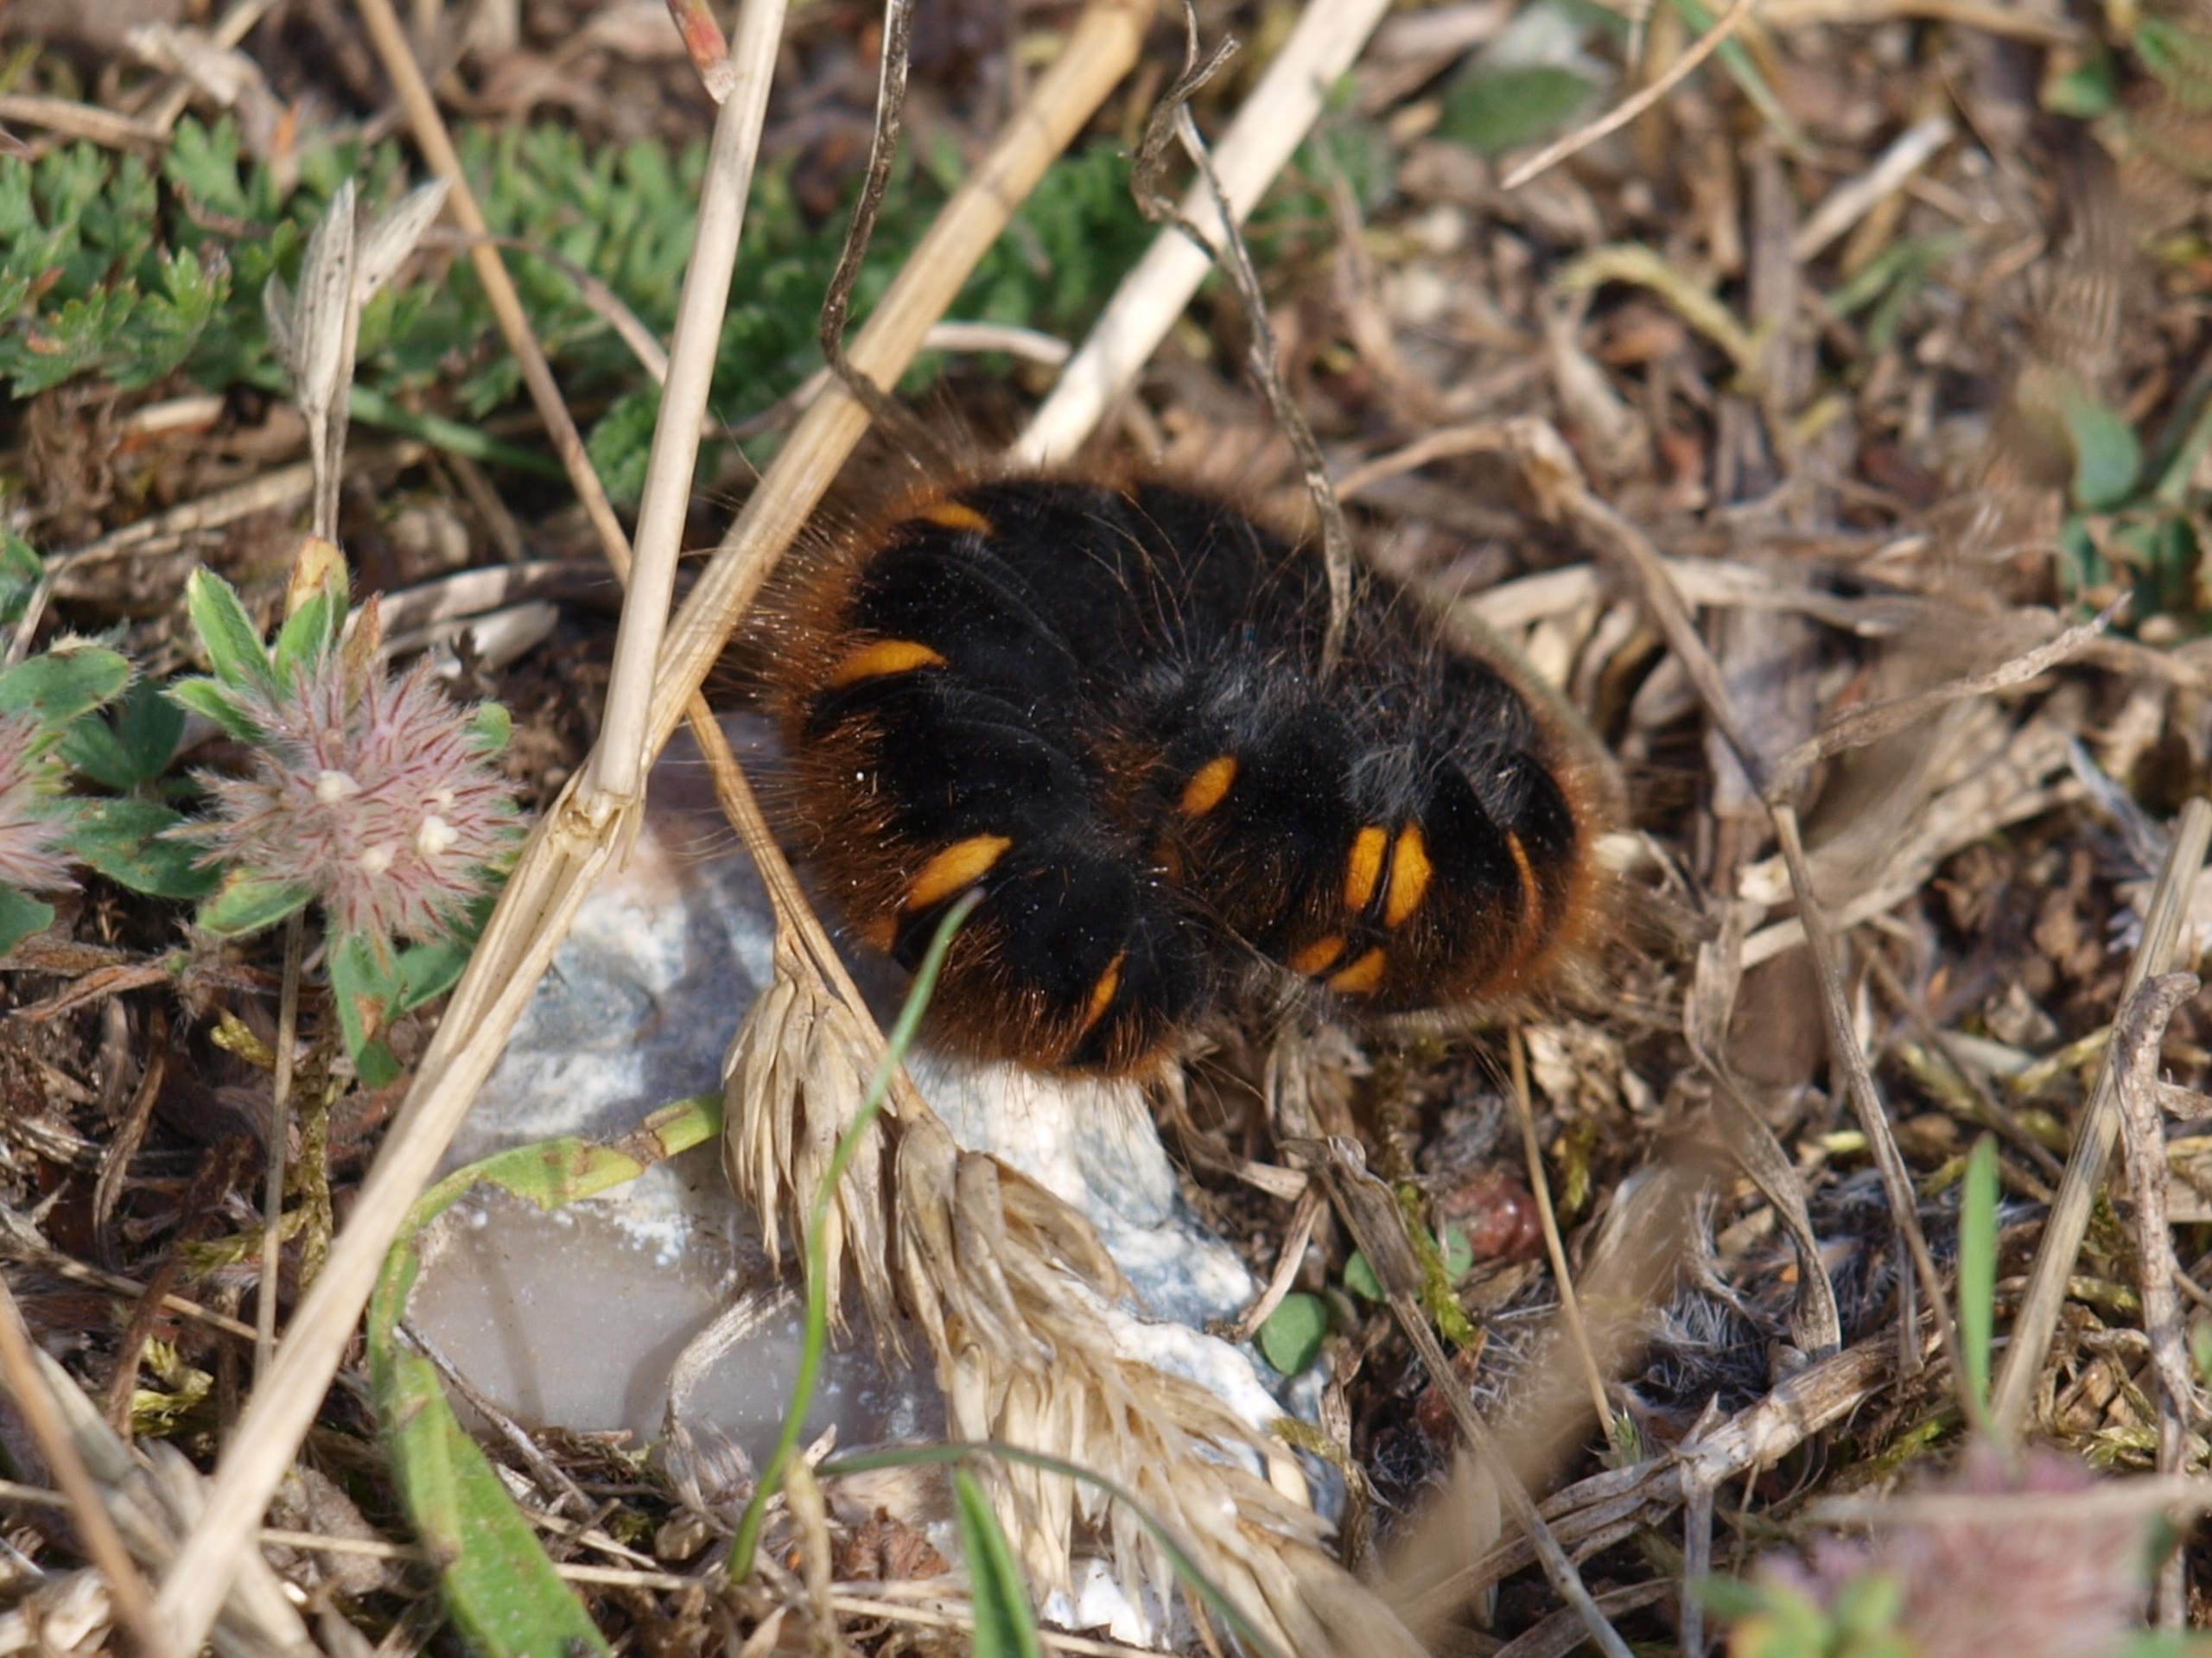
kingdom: Animalia
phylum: Arthropoda
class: Insecta
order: Lepidoptera
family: Lasiocampidae
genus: Macrothylacia
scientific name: Macrothylacia rubi
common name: Brombærspinder
